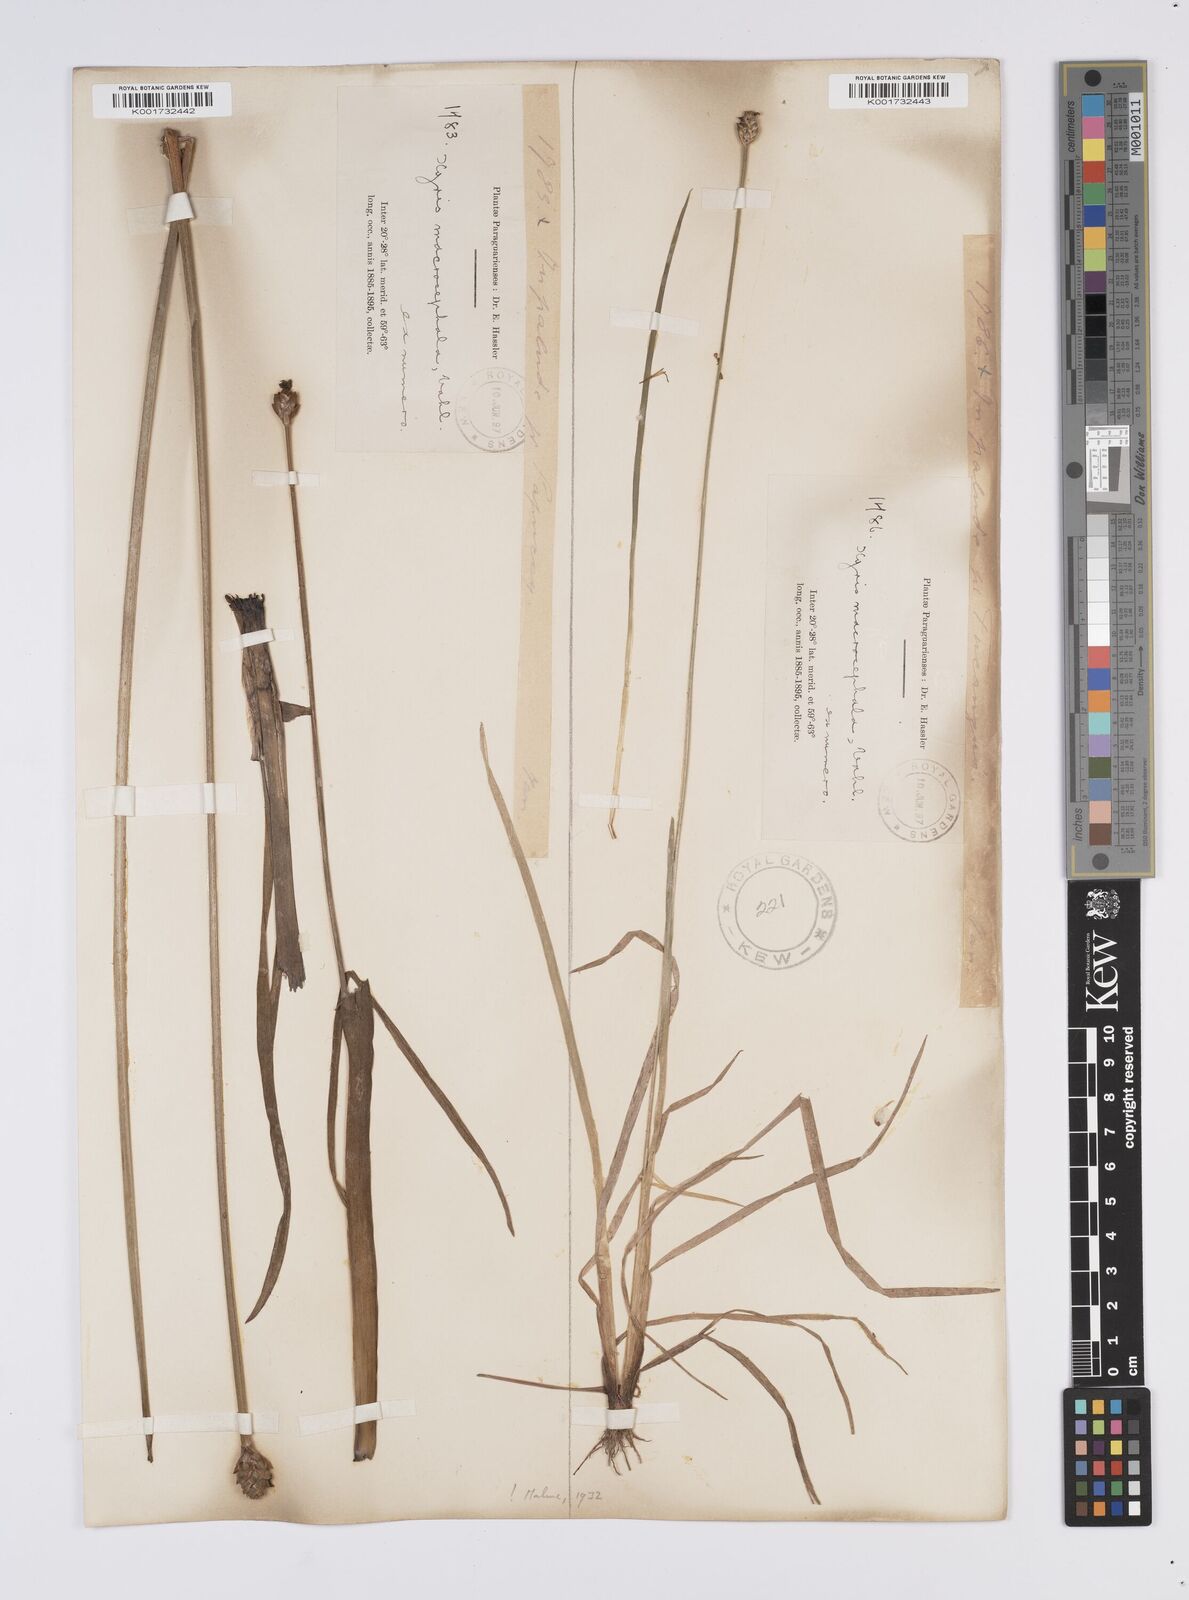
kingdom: Plantae
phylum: Tracheophyta
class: Liliopsida
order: Poales
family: Xyridaceae
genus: Xyris
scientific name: Xyris jupicai
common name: Richard's yelloweyed grass
